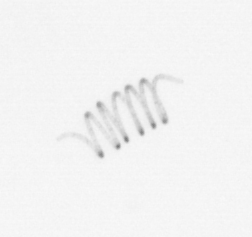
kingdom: Chromista
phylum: Ochrophyta
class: Bacillariophyceae
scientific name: Bacillariophyceae
